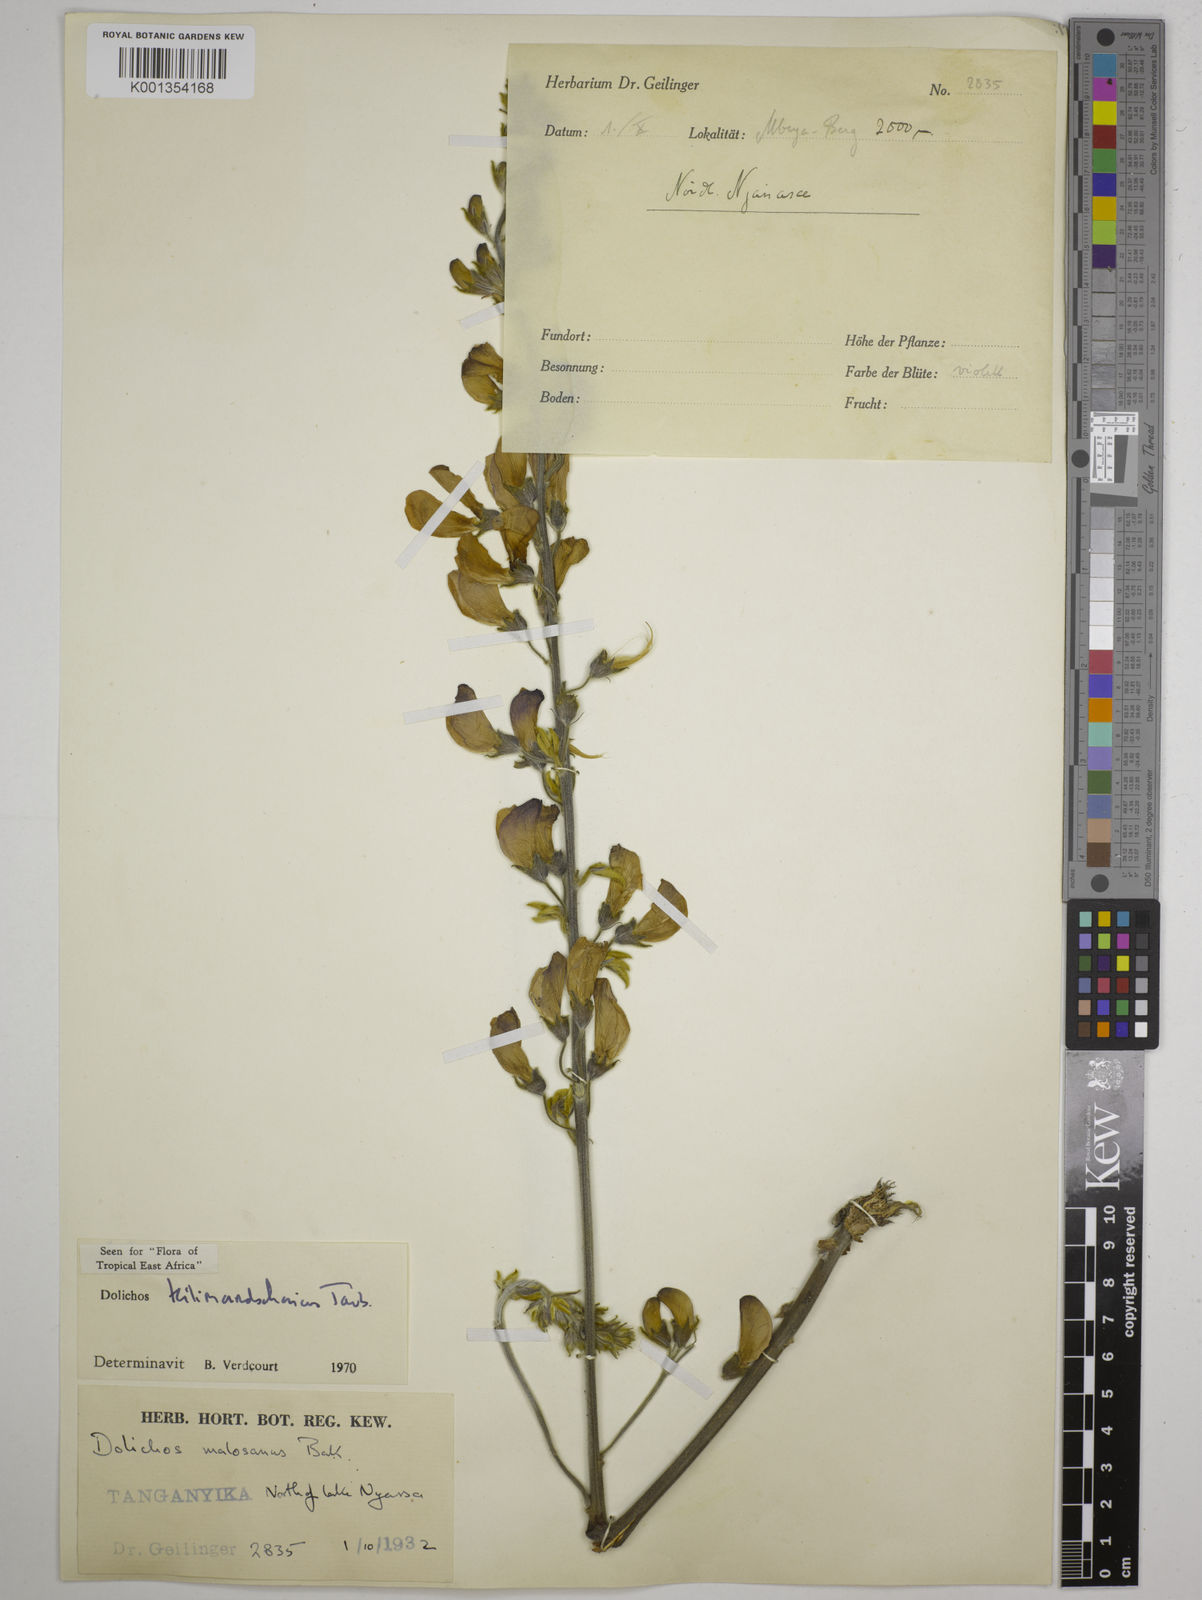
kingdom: Plantae
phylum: Tracheophyta
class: Magnoliopsida
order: Fabales
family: Fabaceae
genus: Dolichos
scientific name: Dolichos kilimandscharicus
